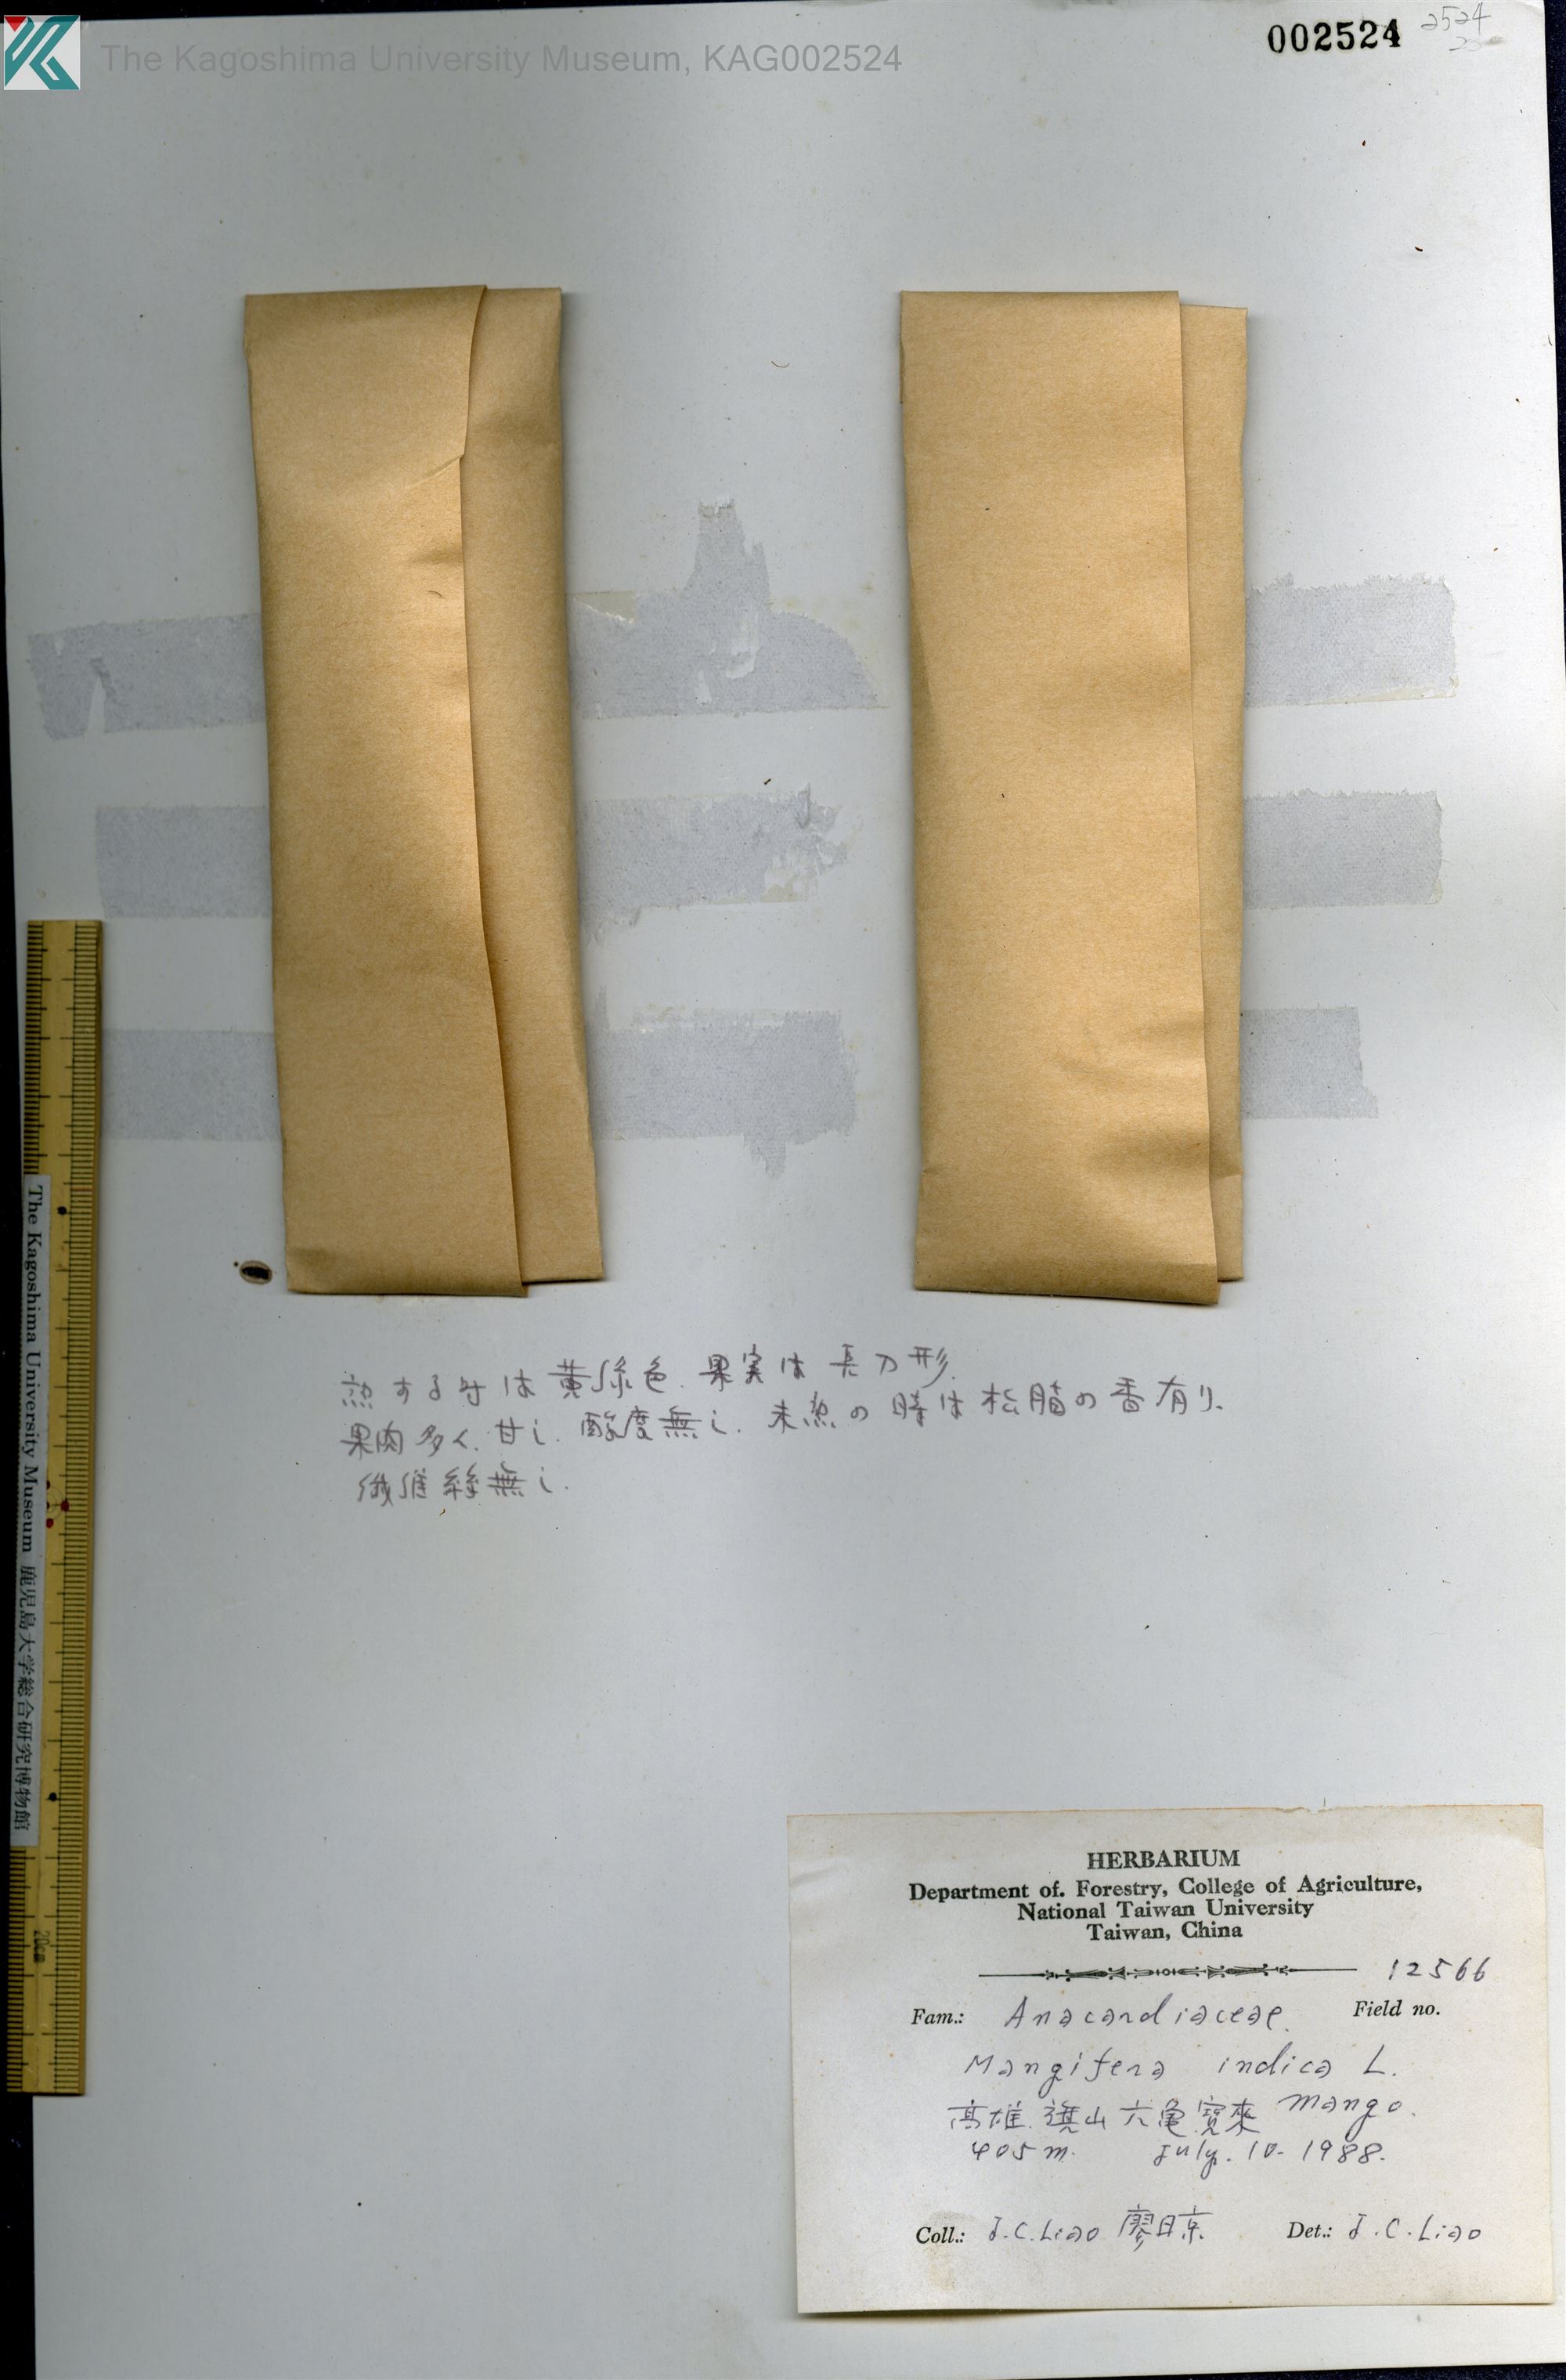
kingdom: Plantae
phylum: Tracheophyta
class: Magnoliopsida
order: Sapindales
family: Anacardiaceae
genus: Mangifera
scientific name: Mangifera indica
